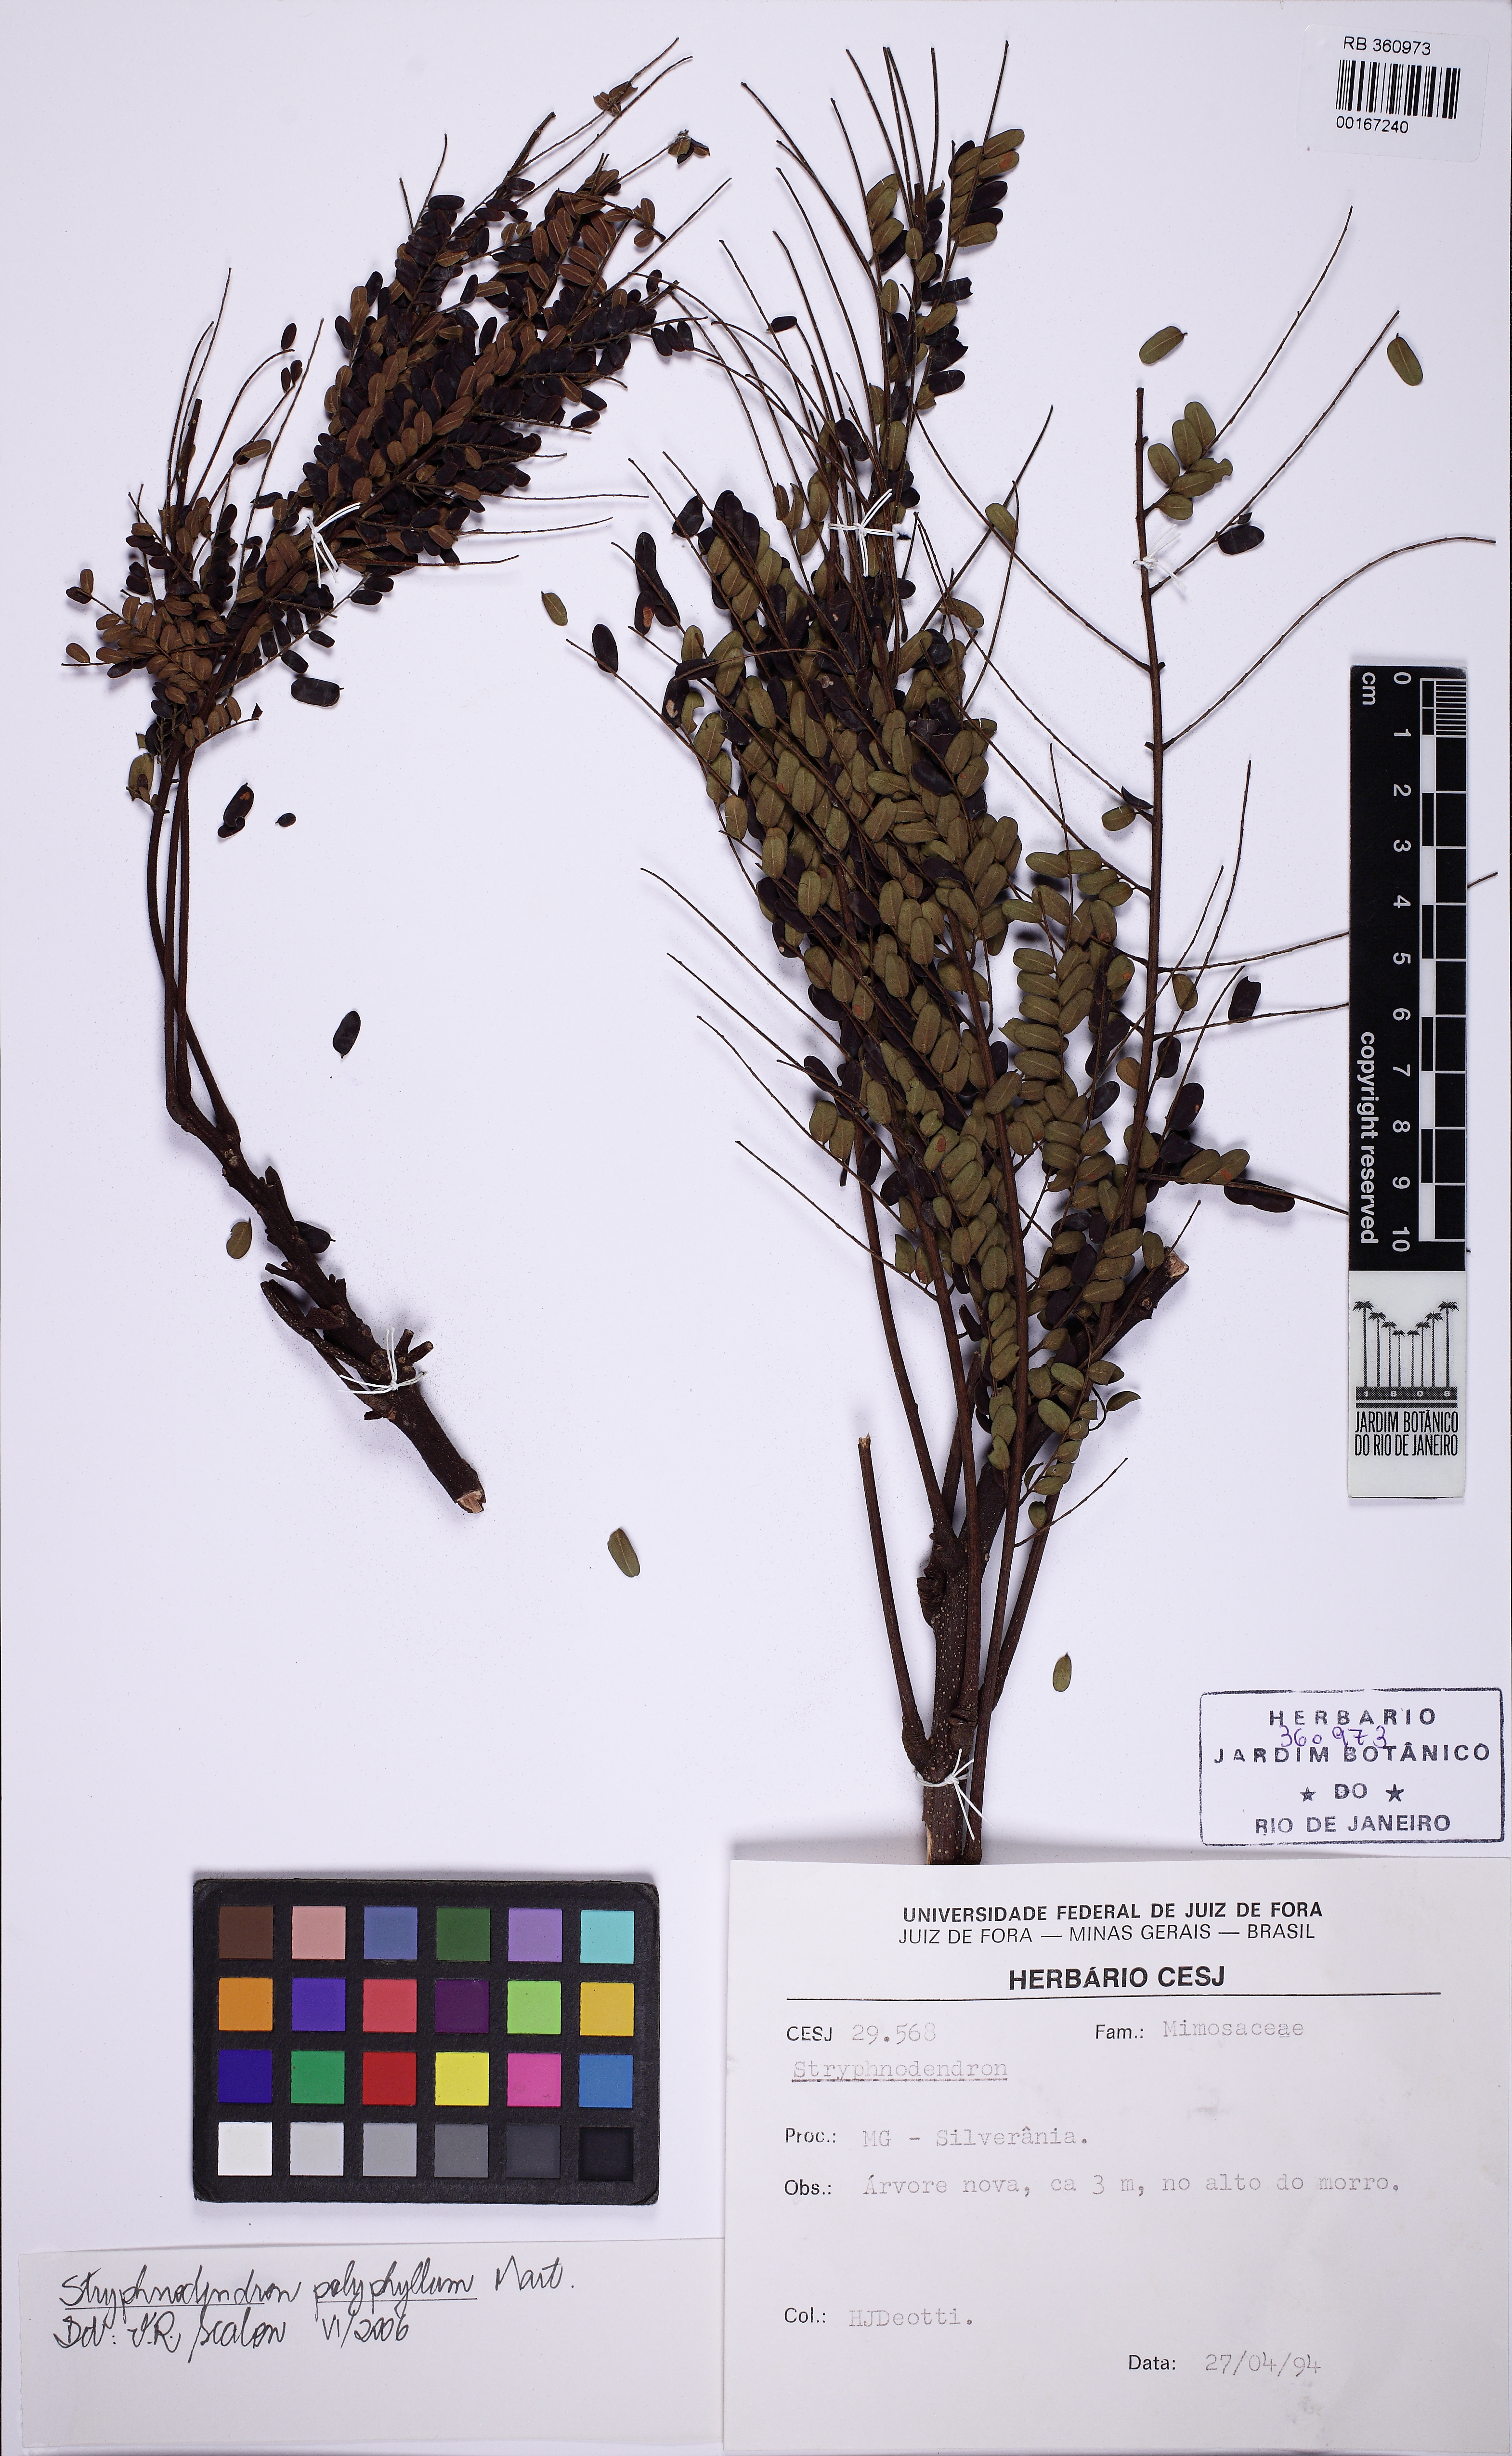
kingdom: Plantae
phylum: Tracheophyta
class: Magnoliopsida
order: Fabales
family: Fabaceae
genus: Stryphnodendron
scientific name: Stryphnodendron polyphyllum
